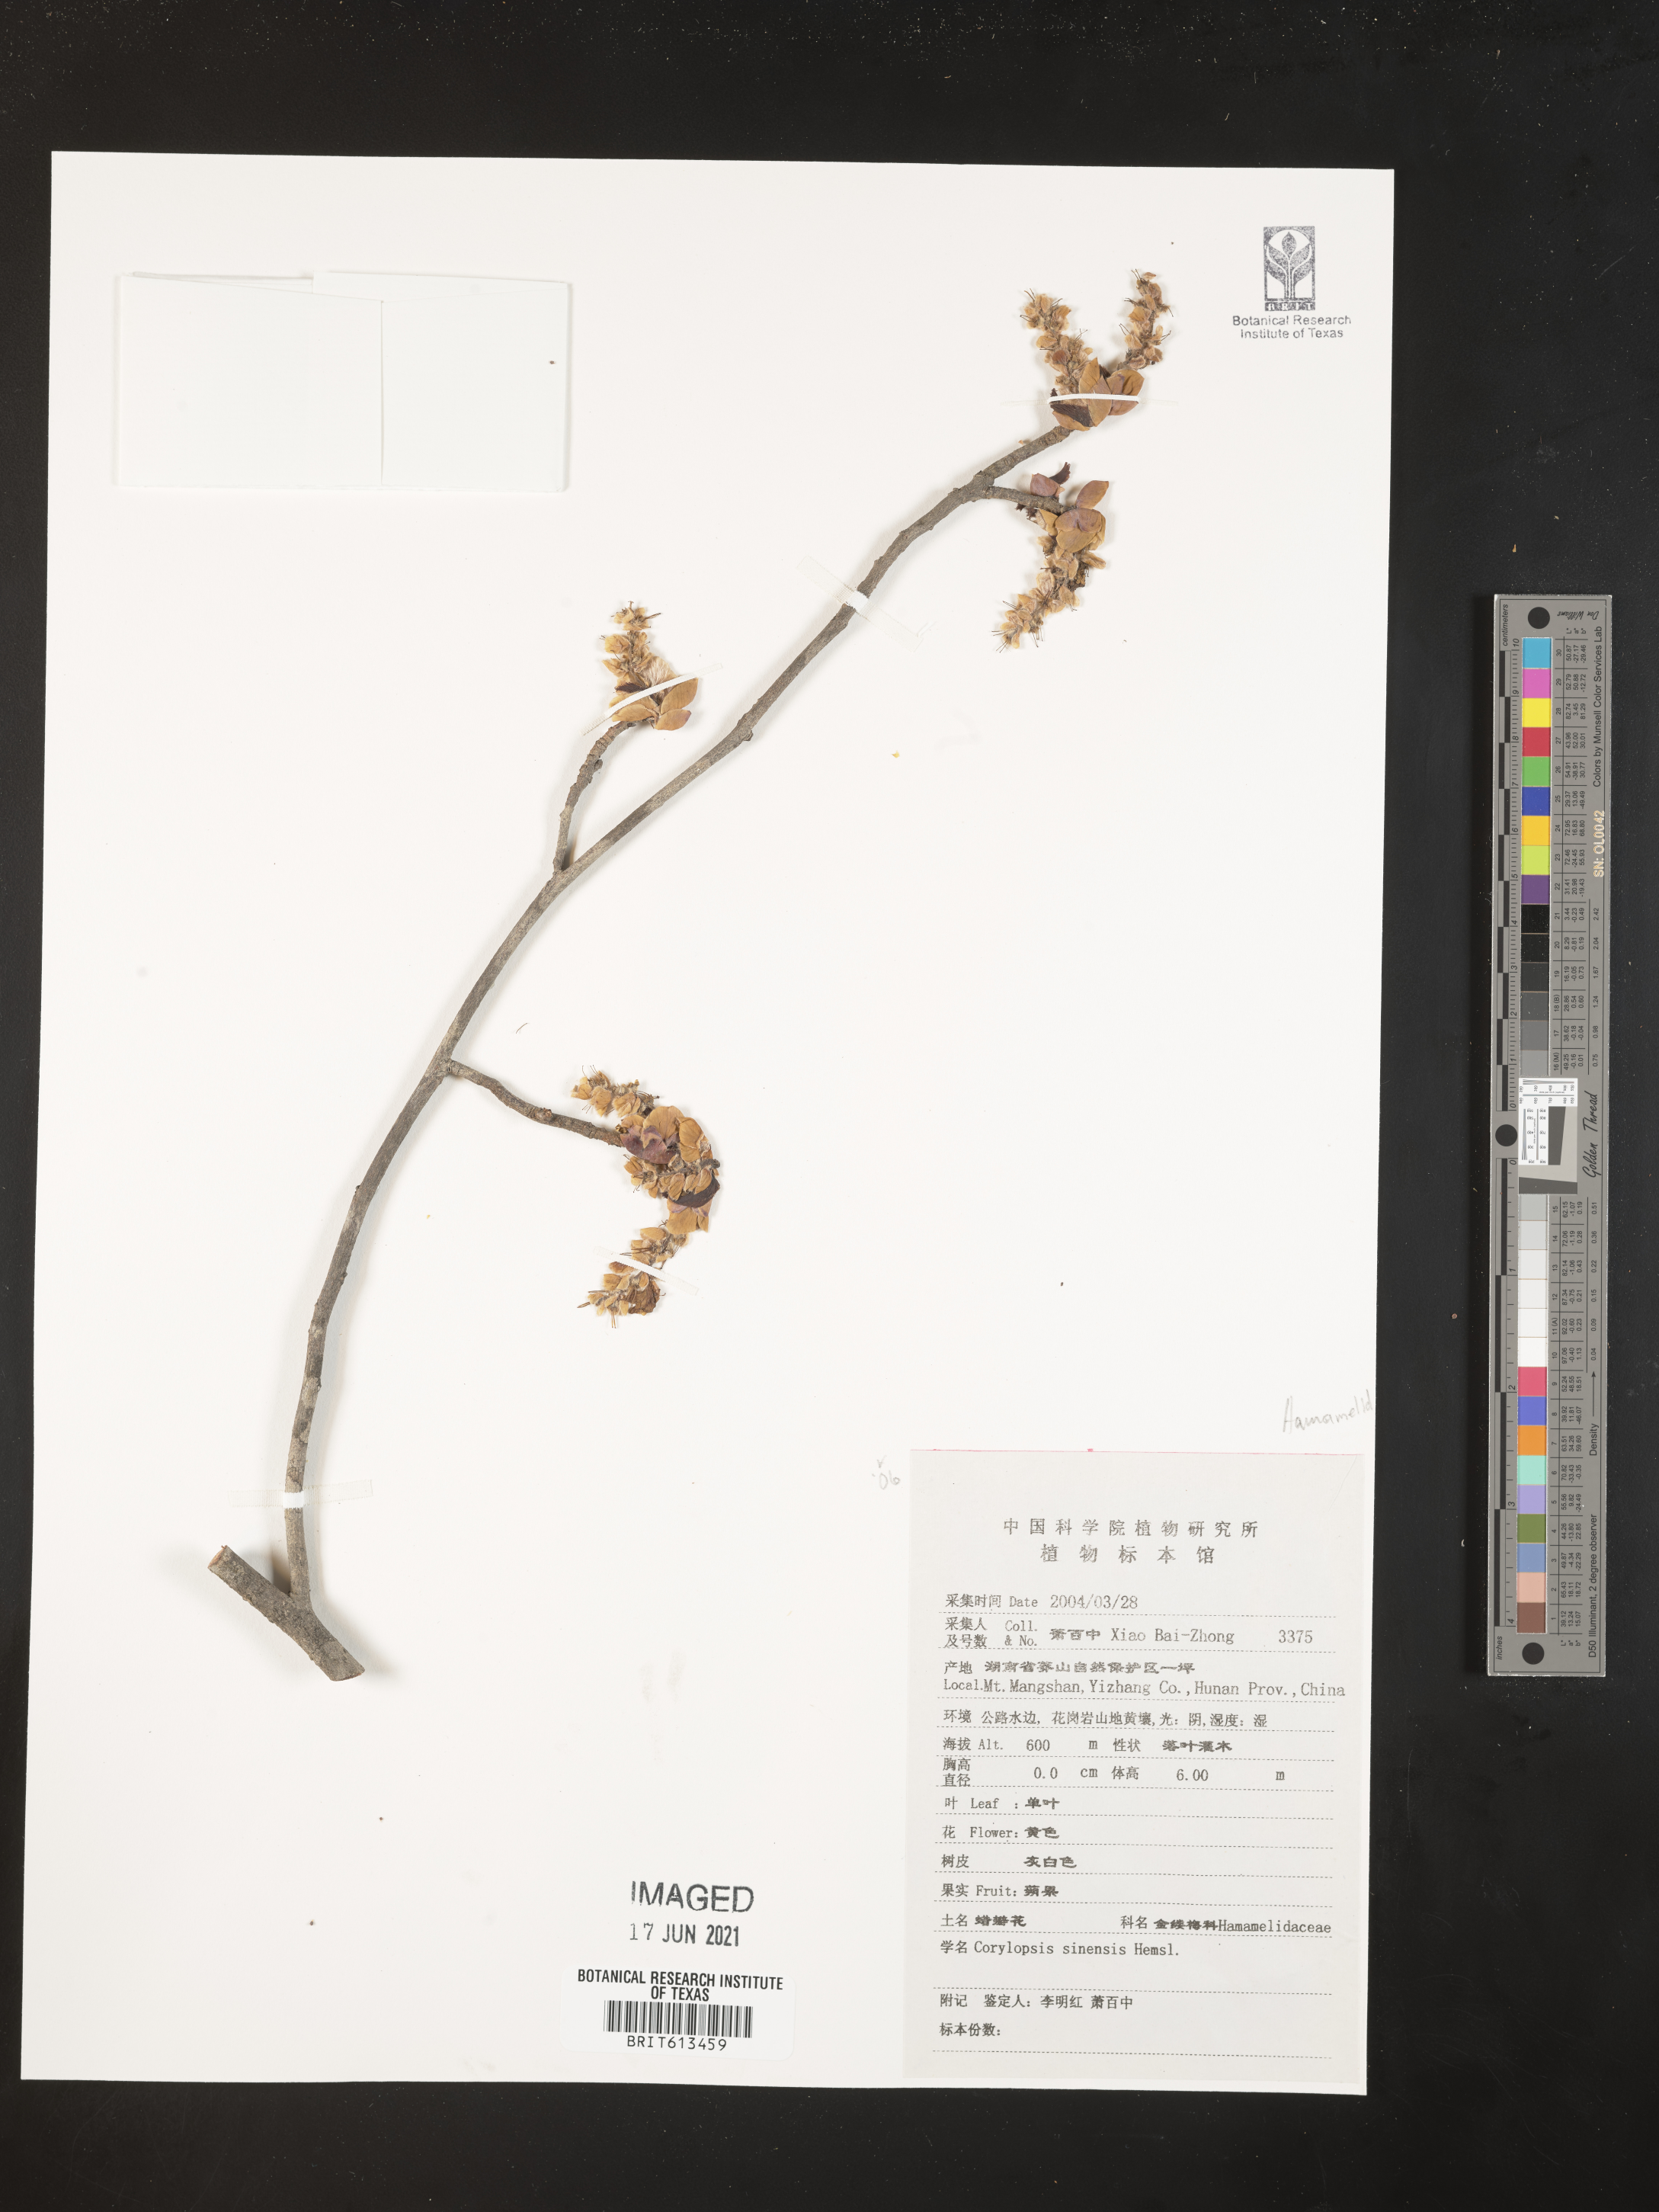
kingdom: Plantae
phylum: Tracheophyta
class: Magnoliopsida
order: Saxifragales
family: Hamamelidaceae
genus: Corylopsis
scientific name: Corylopsis sinensis
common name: Winter hazel
